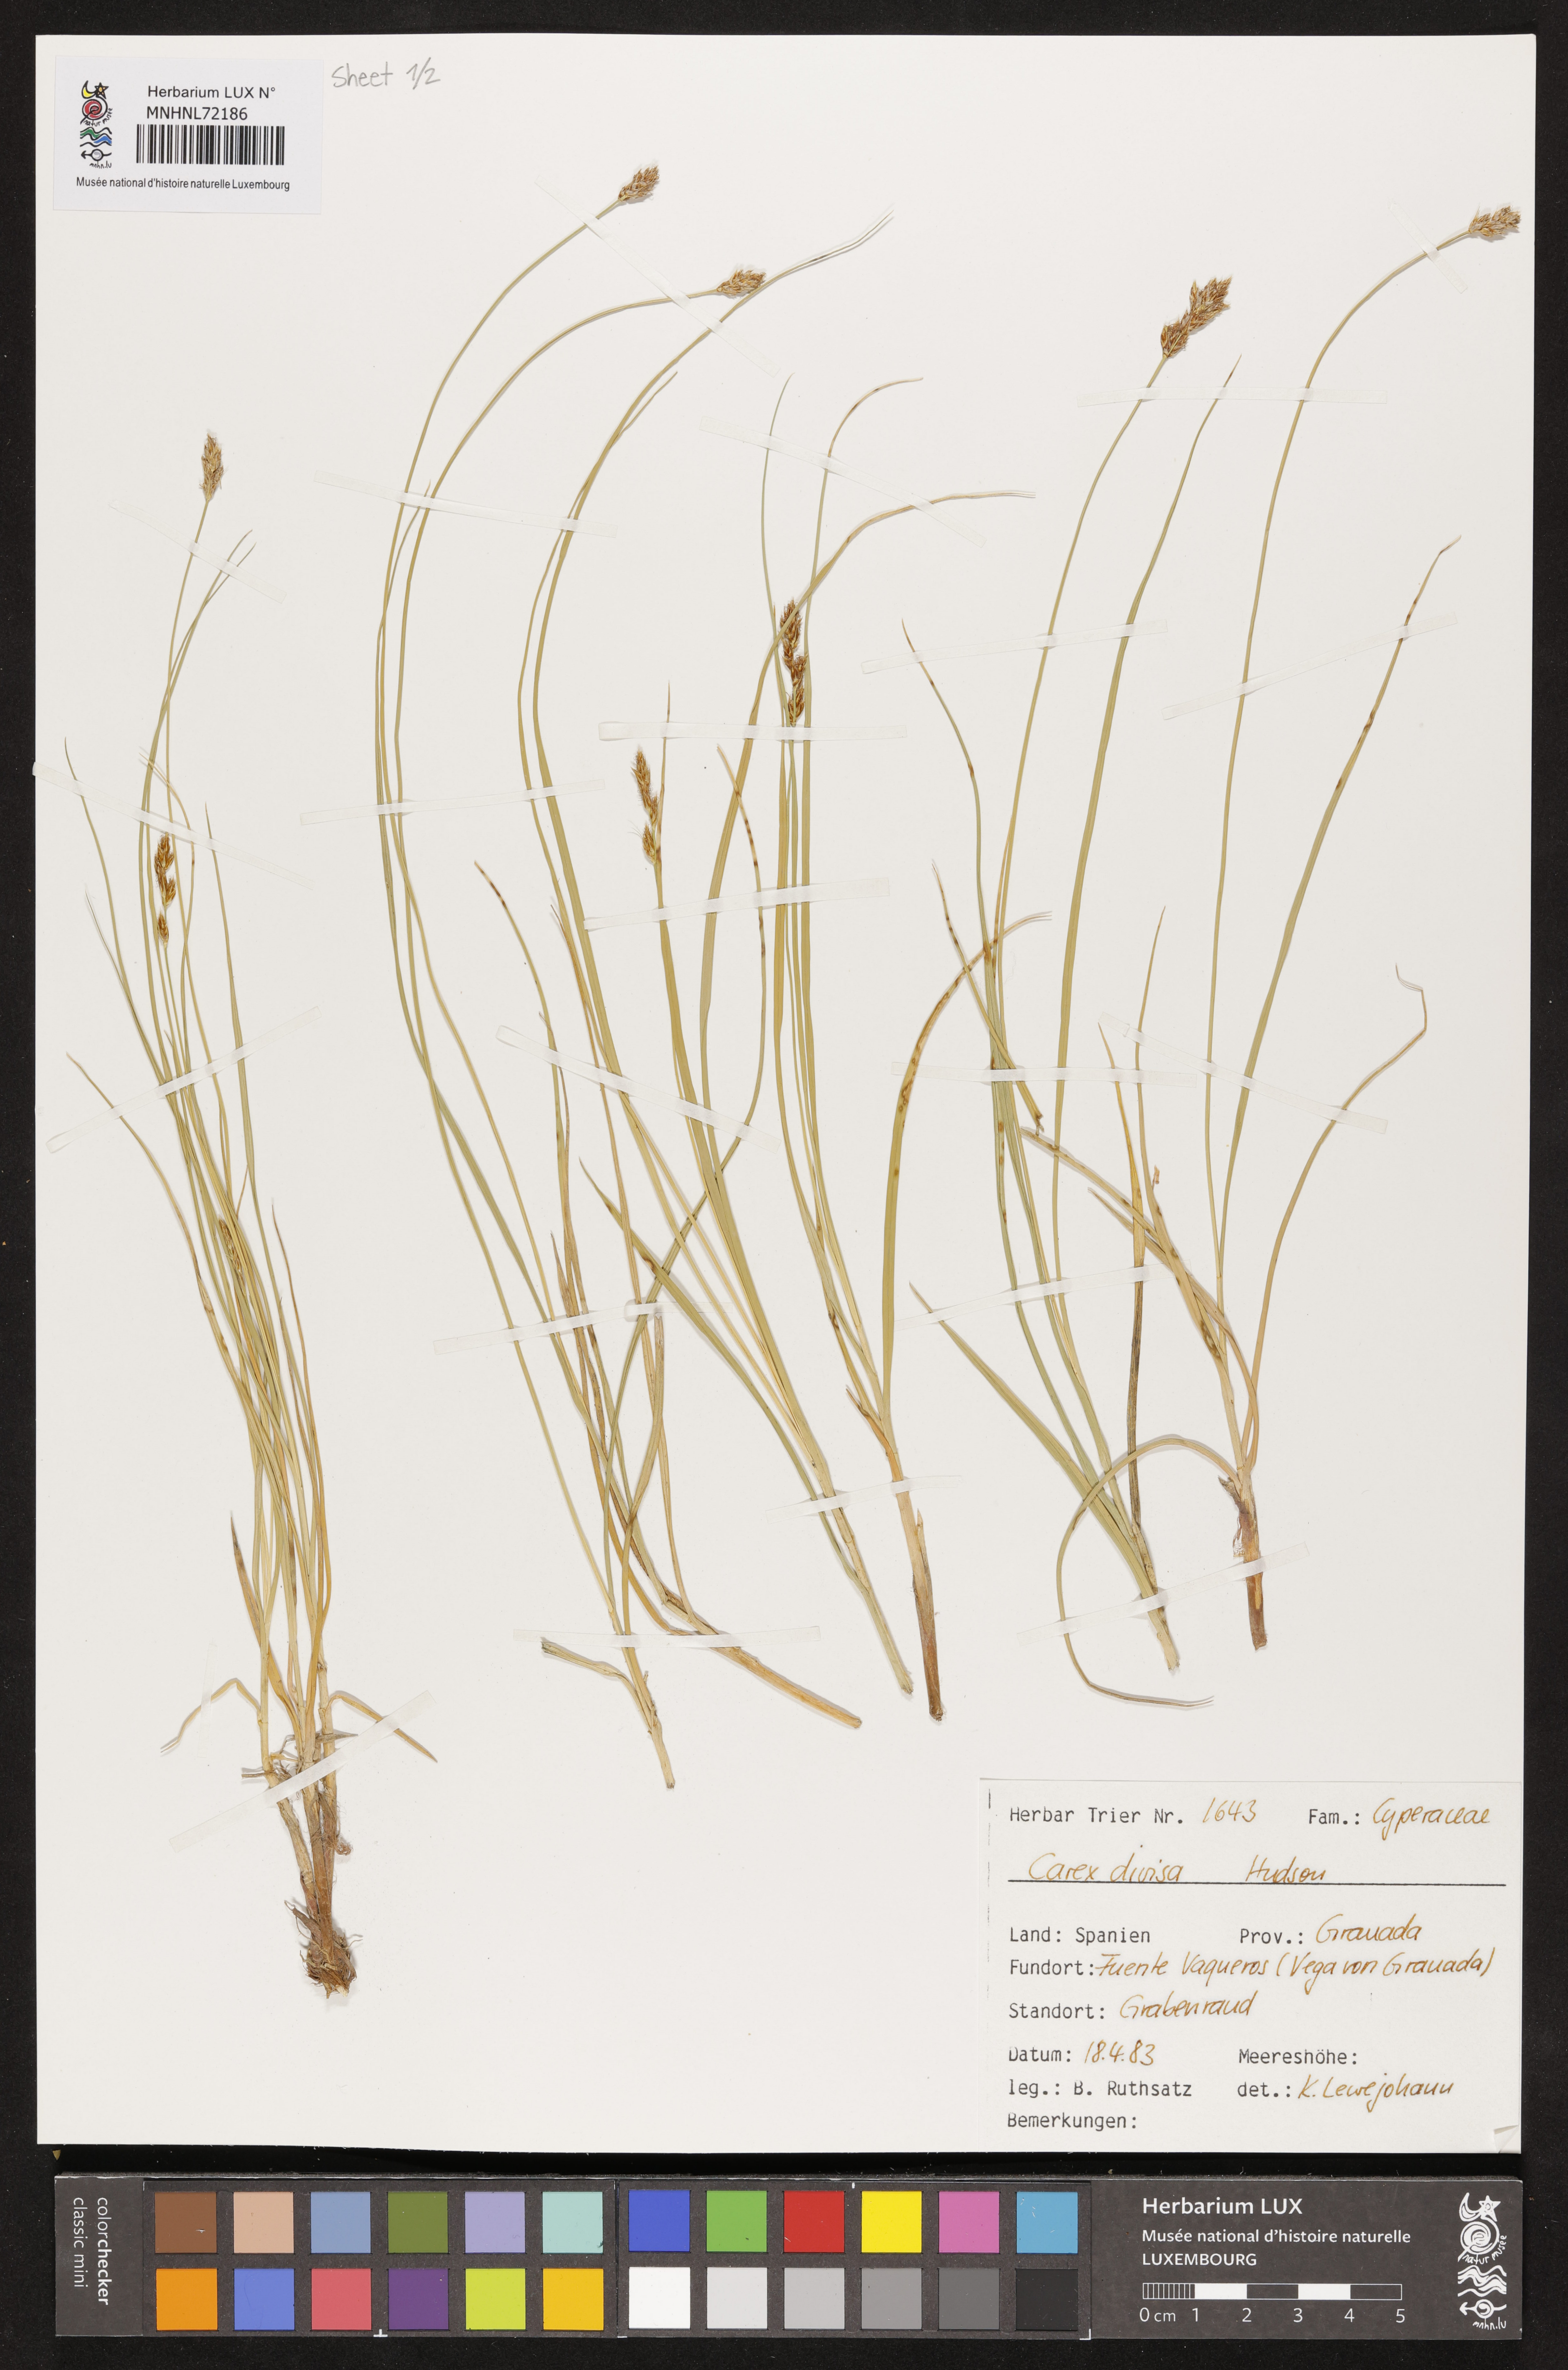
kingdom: Plantae
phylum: Tracheophyta
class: Liliopsida
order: Poales
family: Cyperaceae
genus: Carex
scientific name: Carex divisa
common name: Divided sedge
